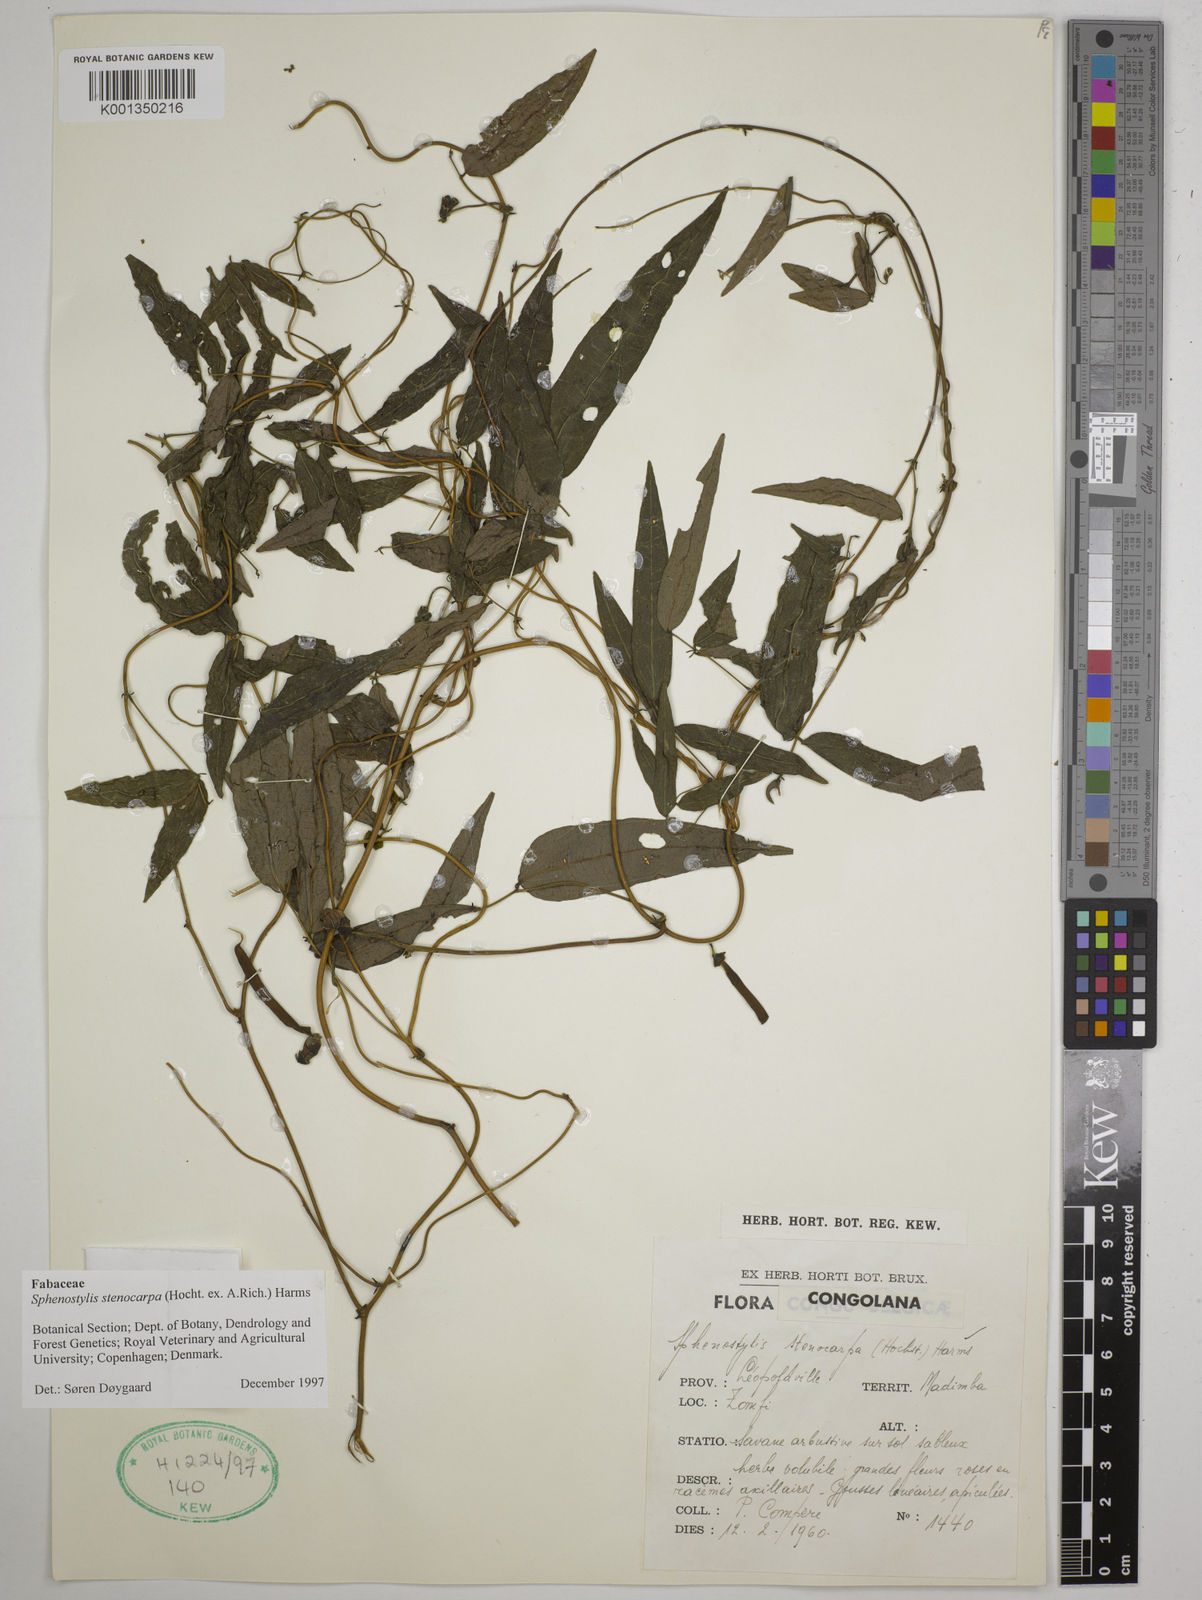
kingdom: Plantae
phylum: Tracheophyta
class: Magnoliopsida
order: Fabales
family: Fabaceae
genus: Sphenostylis
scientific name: Sphenostylis stenocarpa
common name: Yam-pea
